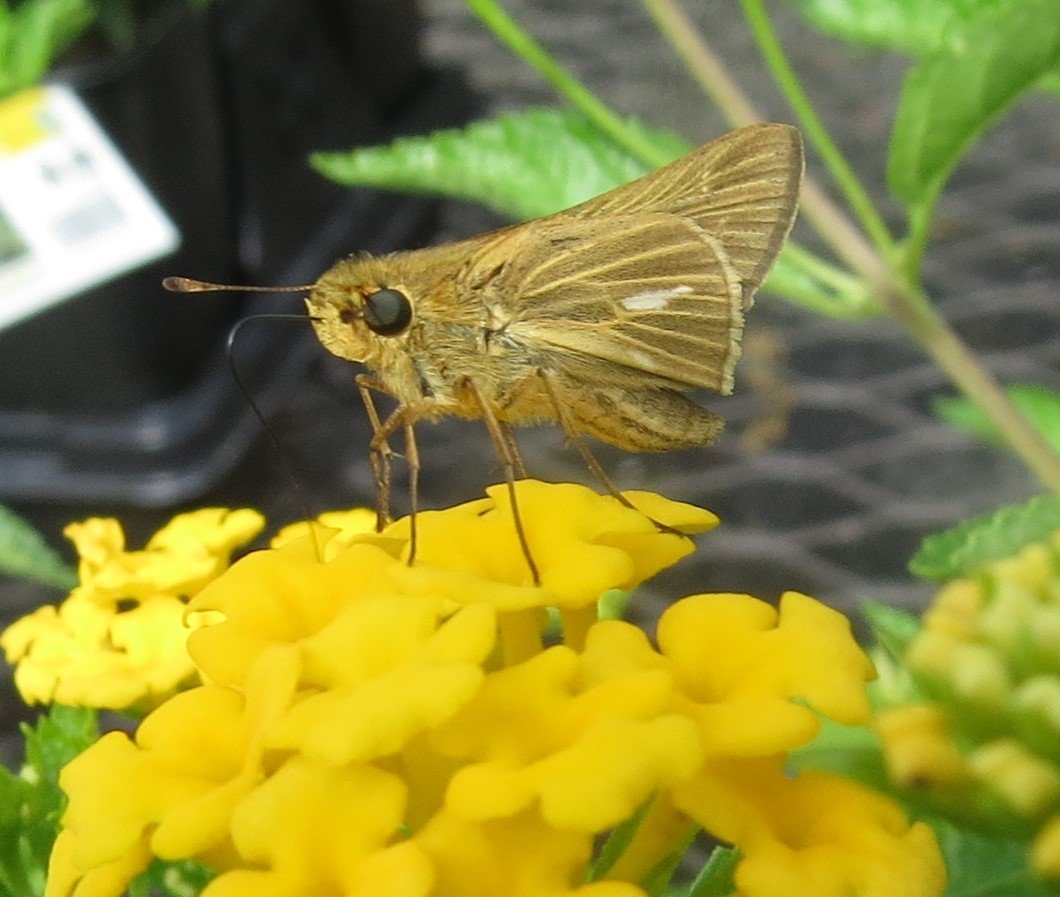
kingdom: Animalia
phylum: Arthropoda
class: Insecta
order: Lepidoptera
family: Hesperiidae
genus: Panoquina
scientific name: Panoquina panoquin
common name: Salt Marsh Skipper
